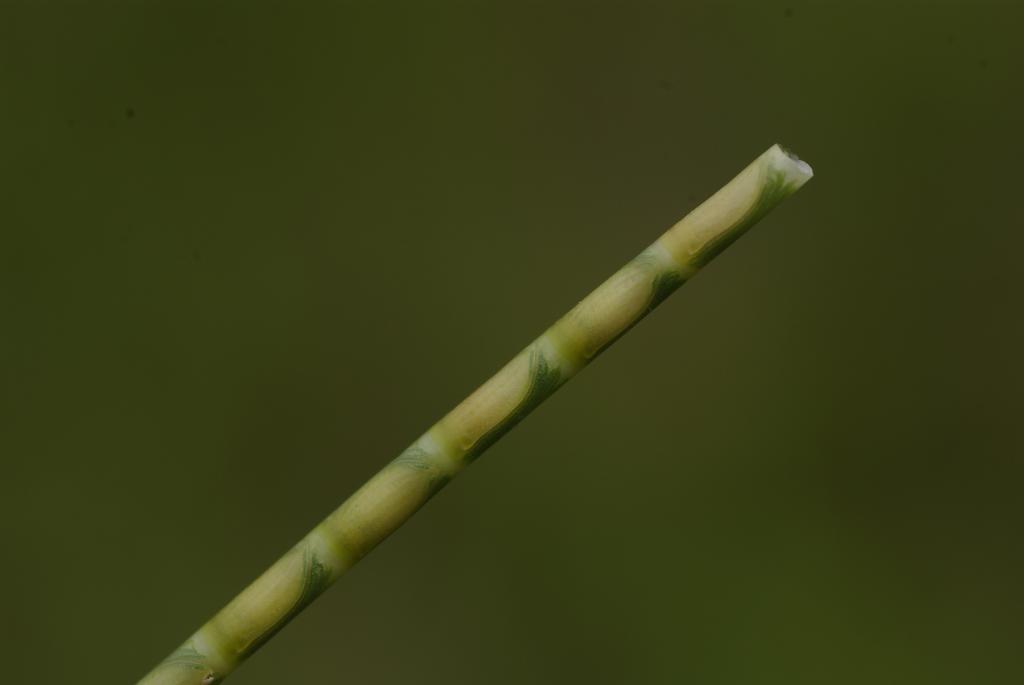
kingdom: Plantae
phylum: Tracheophyta
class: Liliopsida
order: Poales
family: Poaceae
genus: Mnesithea
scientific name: Mnesithea laevis
